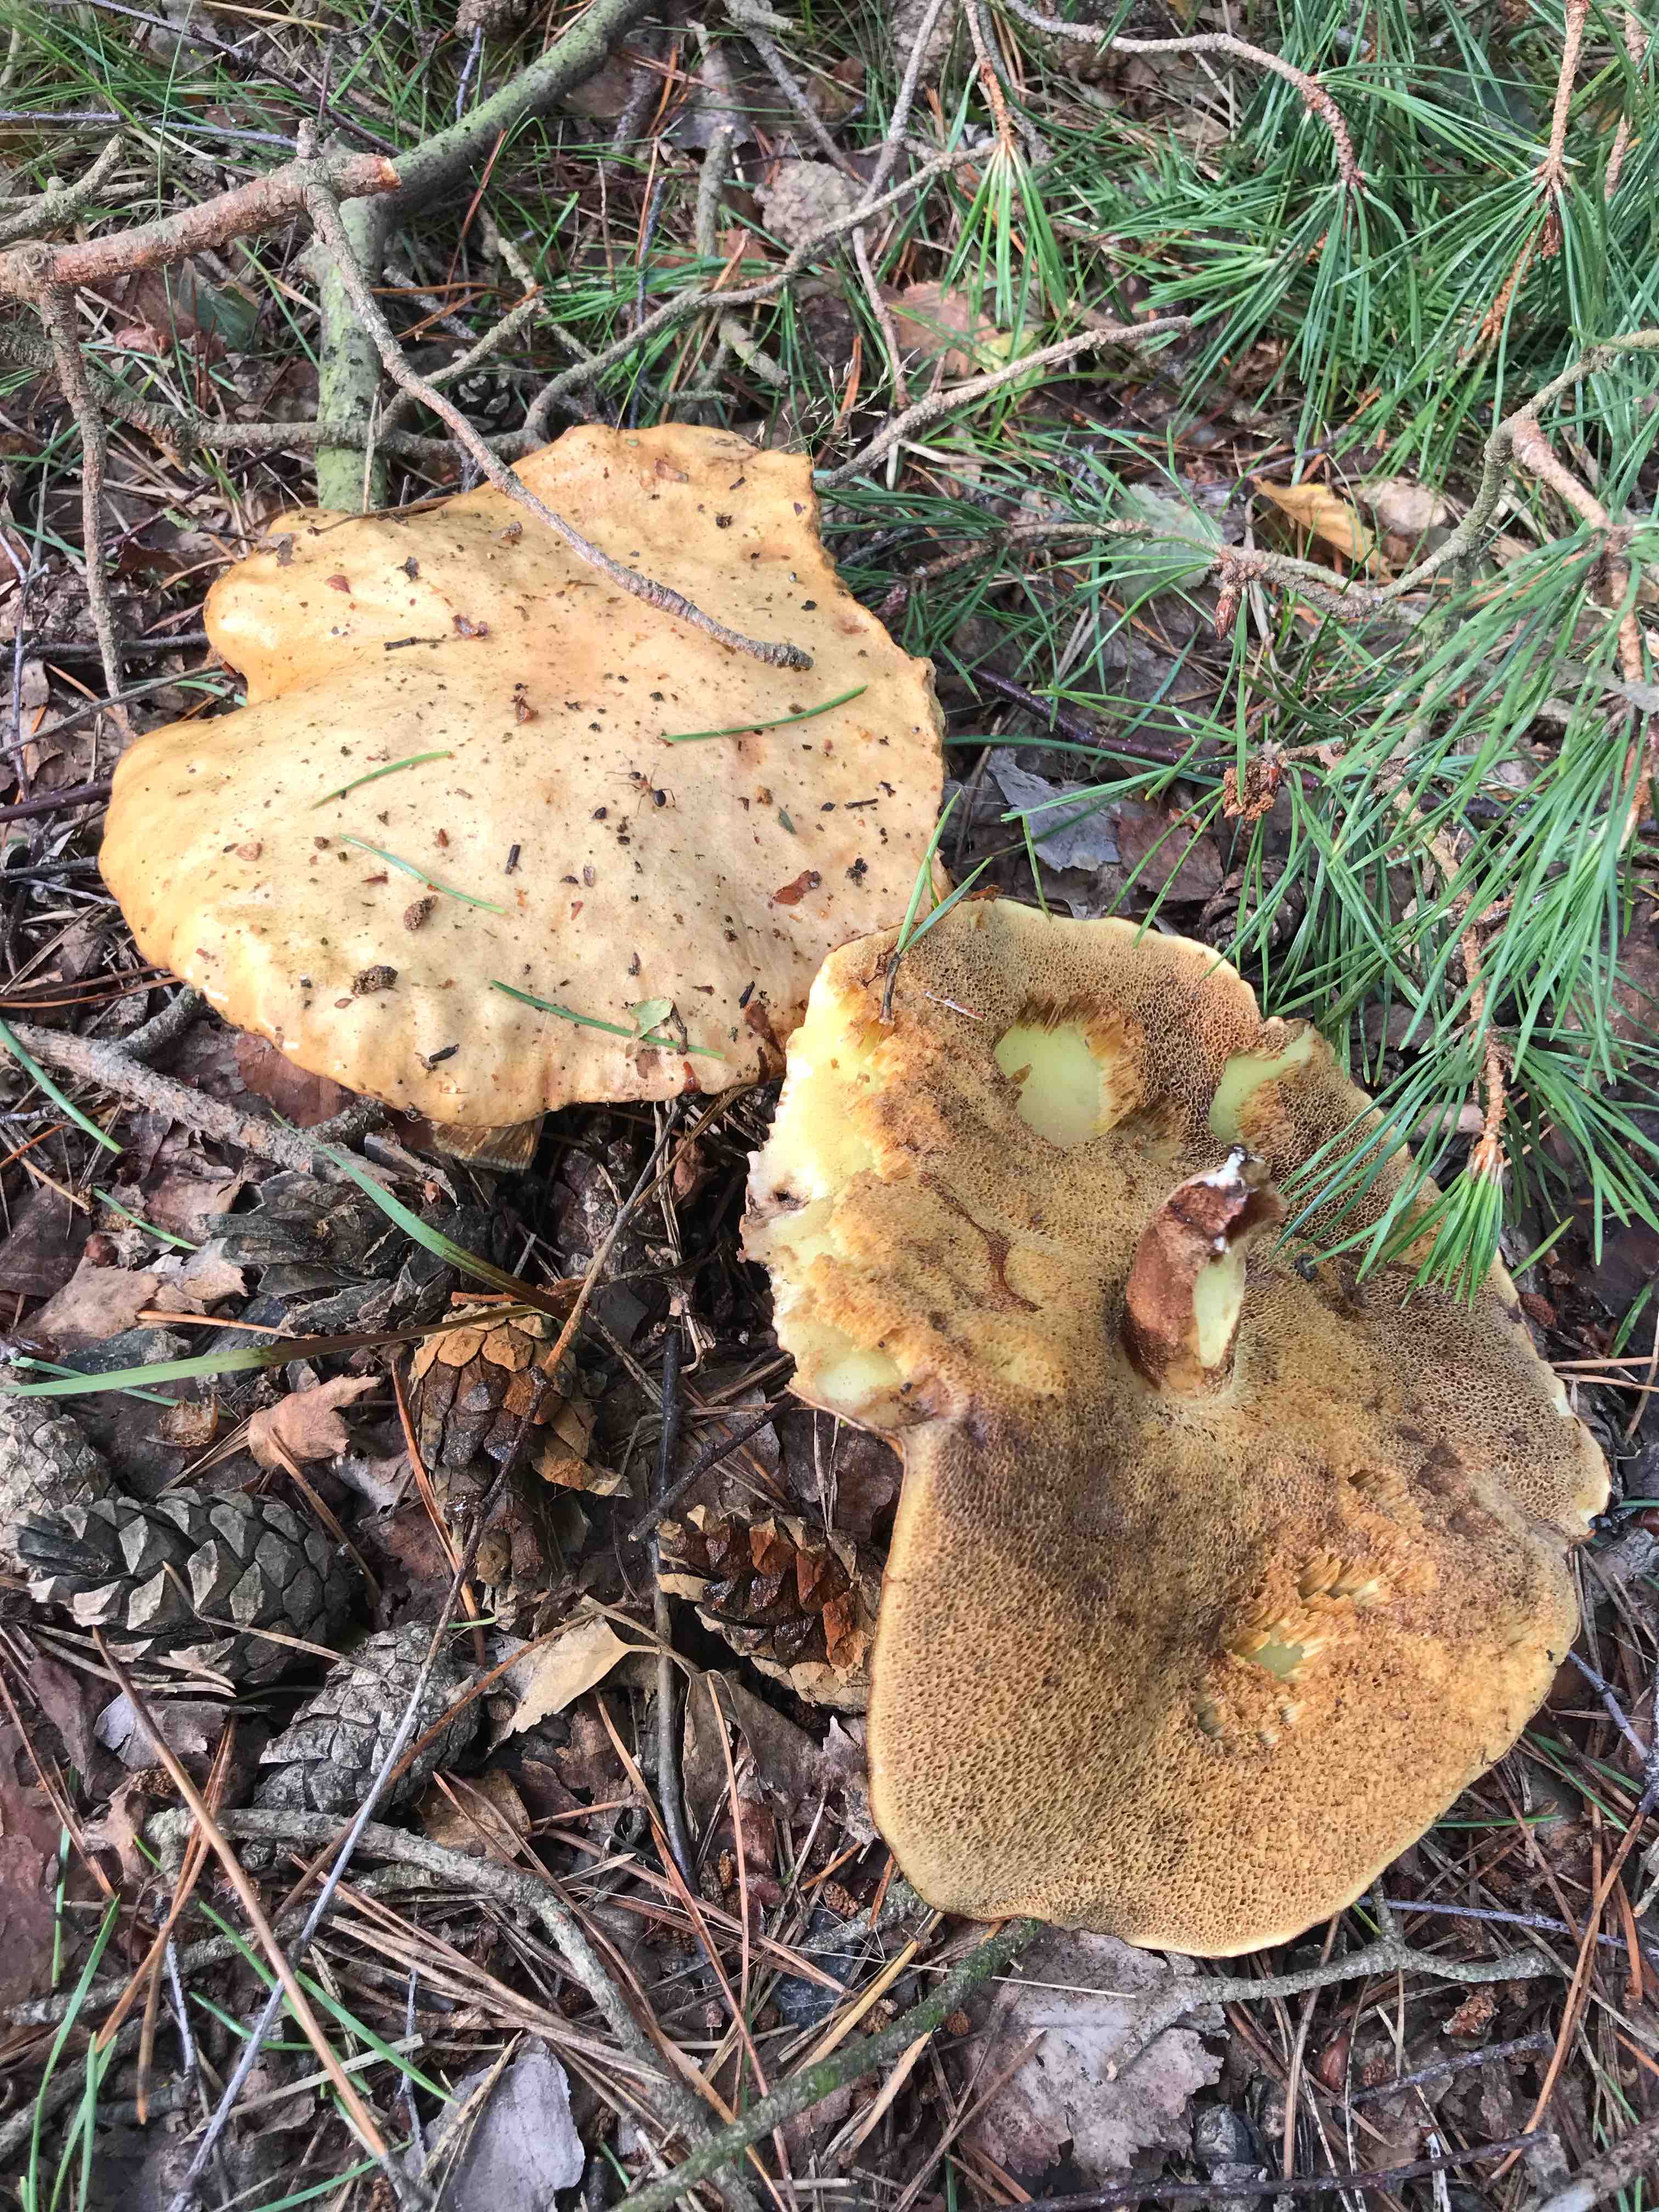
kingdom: Fungi
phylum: Basidiomycota
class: Agaricomycetes
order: Boletales
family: Suillaceae
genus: Suillus
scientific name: Suillus bovinus
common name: grovporet slimrørhat
